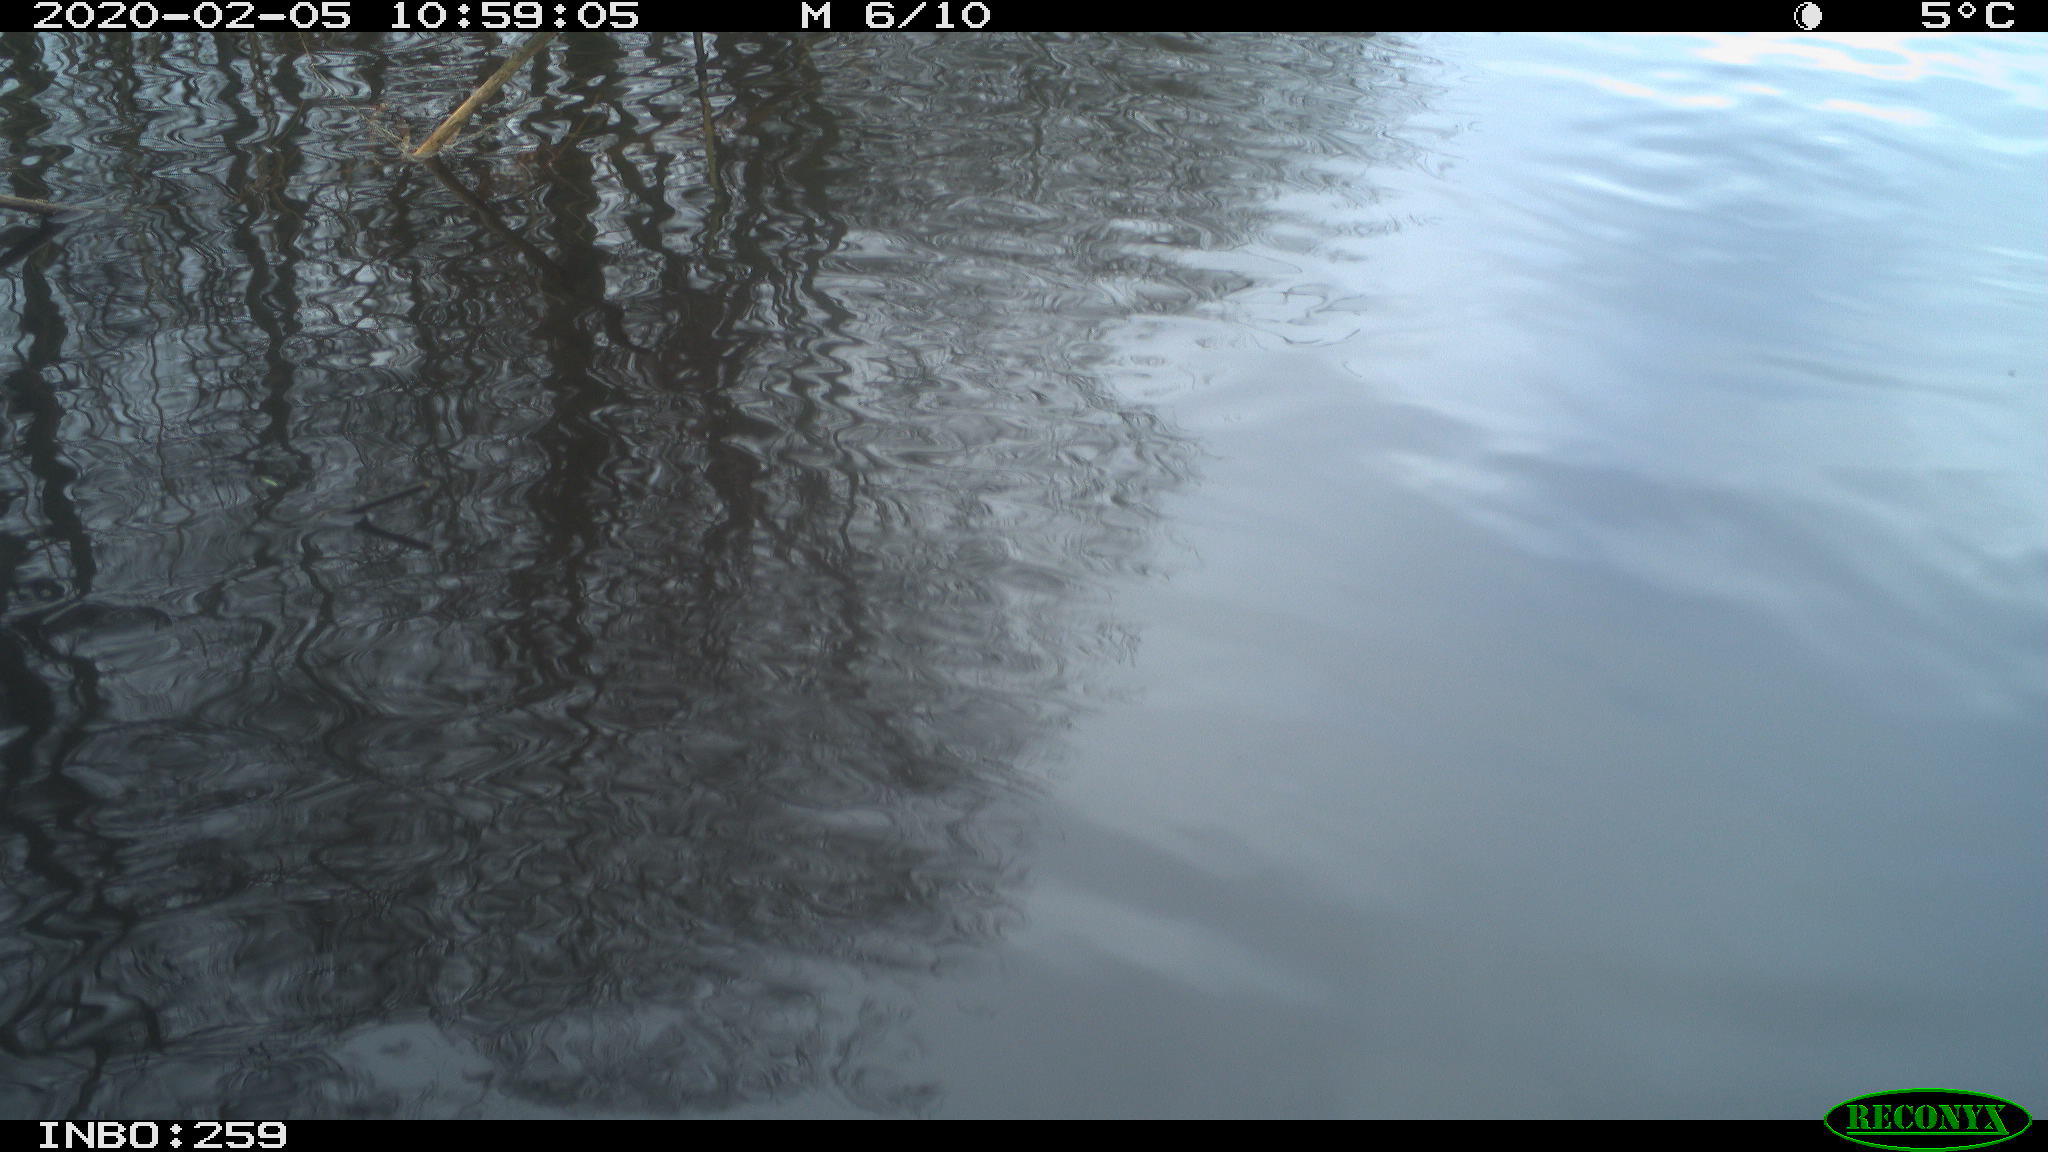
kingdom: Animalia
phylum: Chordata
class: Aves
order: Gruiformes
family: Rallidae
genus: Gallinula
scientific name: Gallinula chloropus
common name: Common moorhen
